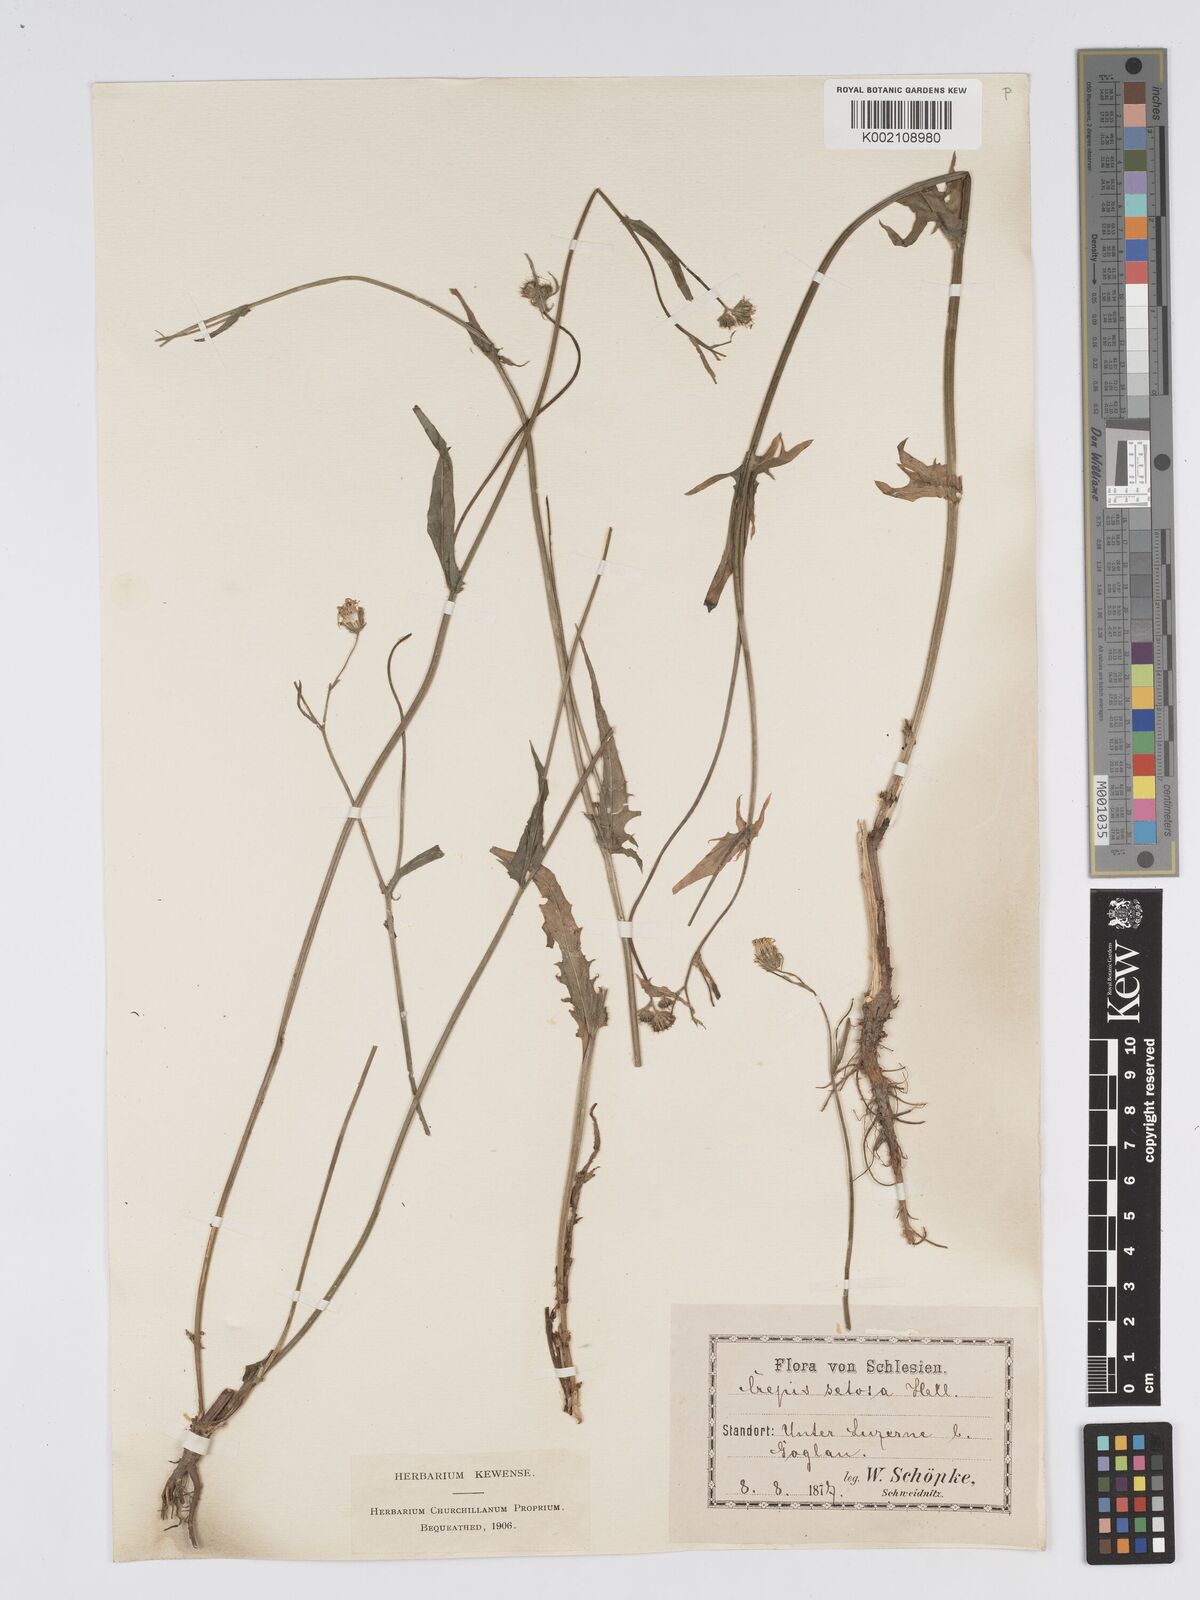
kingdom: Plantae
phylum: Tracheophyta
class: Magnoliopsida
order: Asterales
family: Asteraceae
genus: Crepis
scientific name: Crepis setosa
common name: Bristly hawk's-beard
